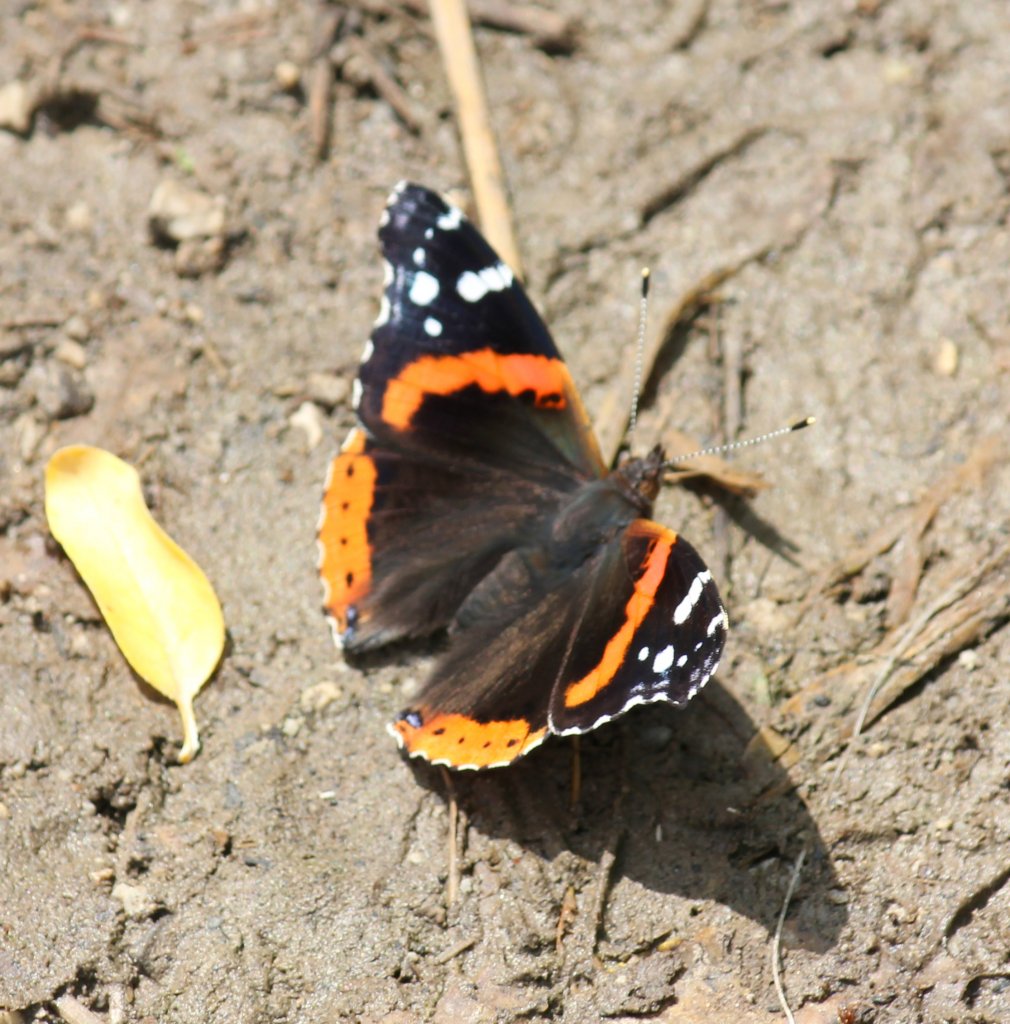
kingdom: Animalia
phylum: Arthropoda
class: Insecta
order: Lepidoptera
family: Nymphalidae
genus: Vanessa
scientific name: Vanessa atalanta
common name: Red Admiral
